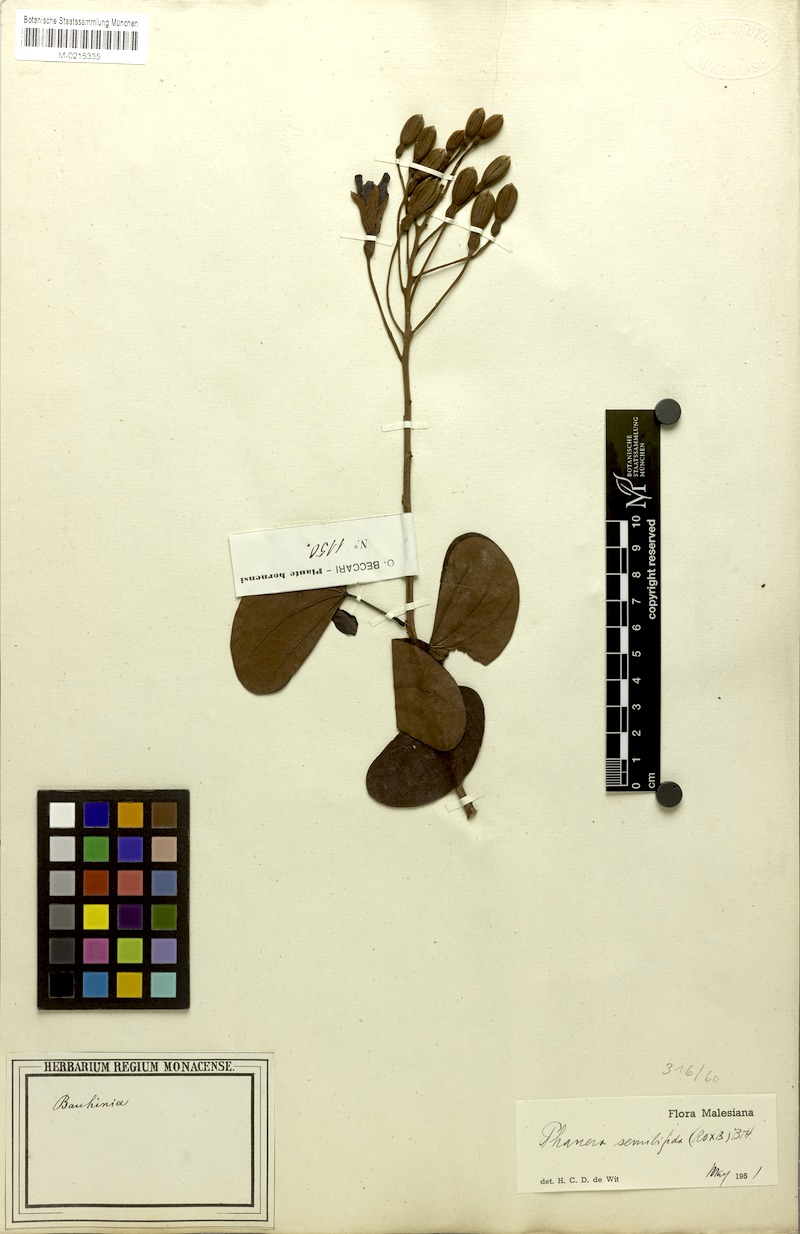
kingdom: Plantae
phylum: Tracheophyta
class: Magnoliopsida
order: Fabales
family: Fabaceae
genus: Phanera
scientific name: Phanera semibifida
